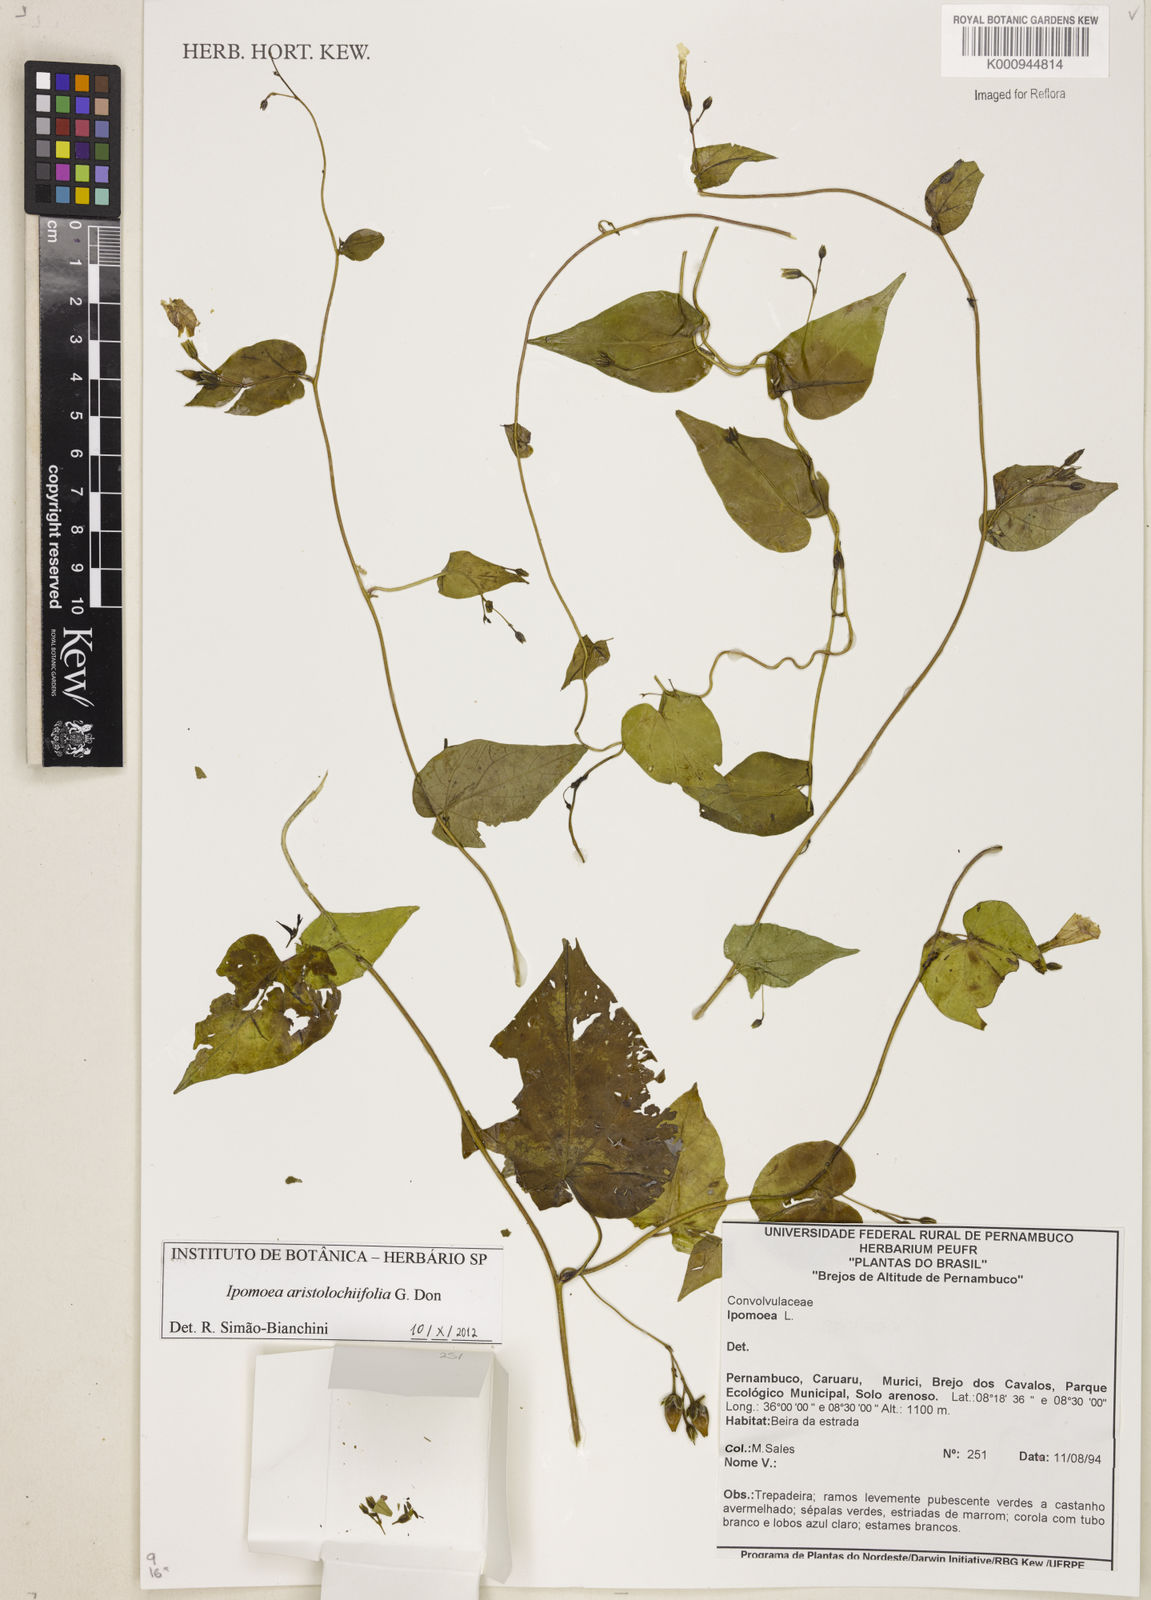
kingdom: Plantae
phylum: Tracheophyta
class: Magnoliopsida
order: Solanales
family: Convolvulaceae
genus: Ipomoea
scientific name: Ipomoea
